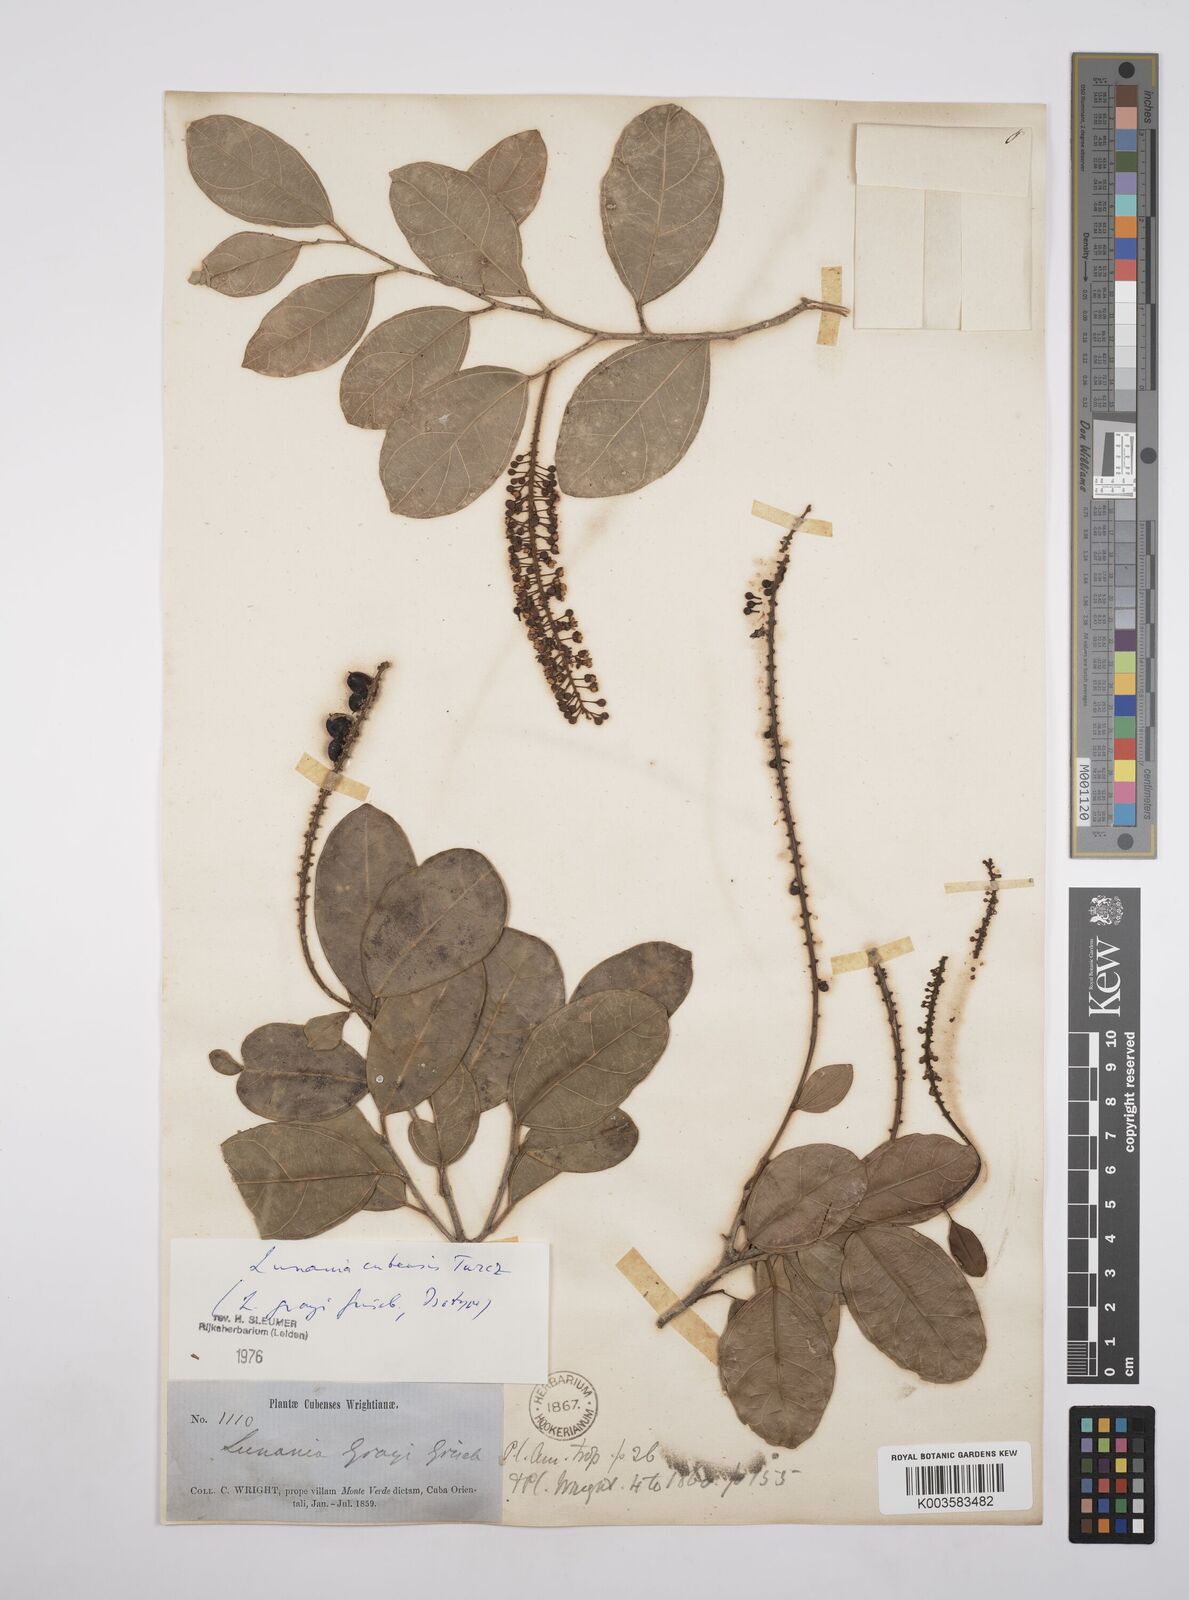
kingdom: Plantae
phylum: Tracheophyta
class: Magnoliopsida
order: Malpighiales
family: Salicaceae
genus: Lunania
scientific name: Lunania cubensis
